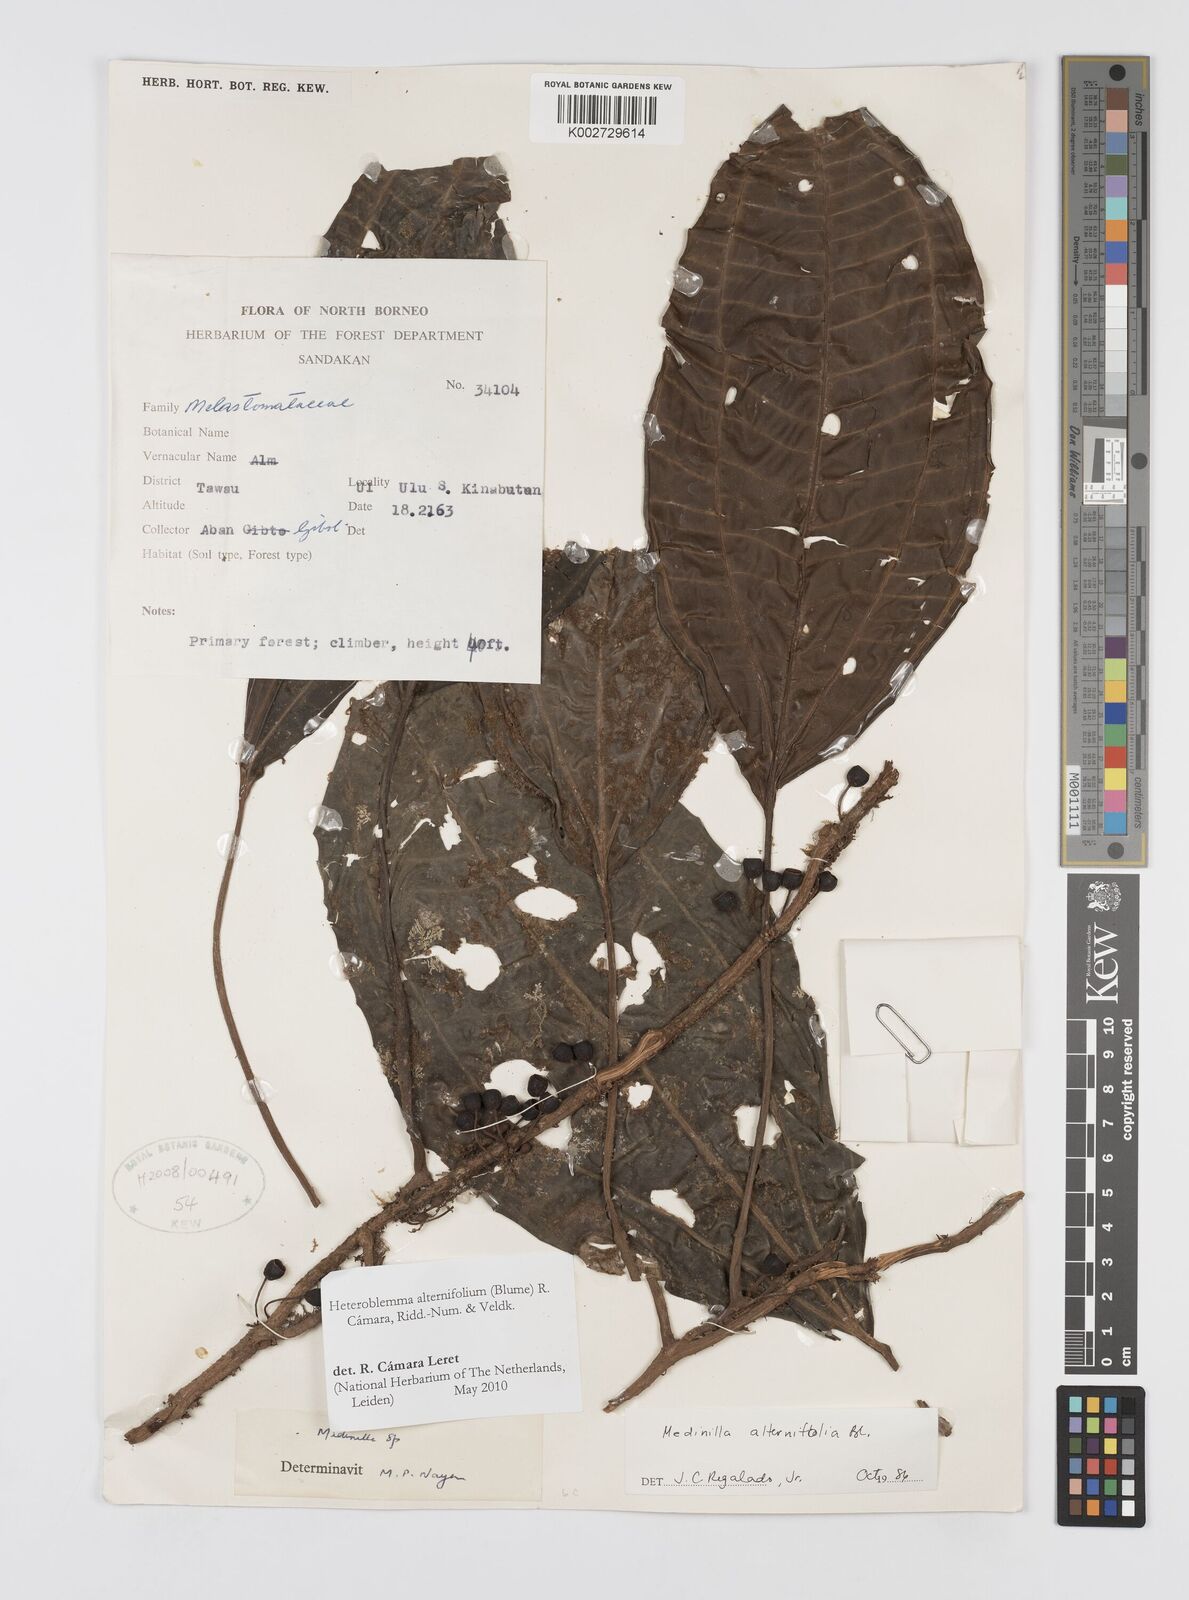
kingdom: Plantae
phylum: Tracheophyta
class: Magnoliopsida
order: Myrtales
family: Melastomataceae
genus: Heteroblemma
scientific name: Heteroblemma alternifolium
